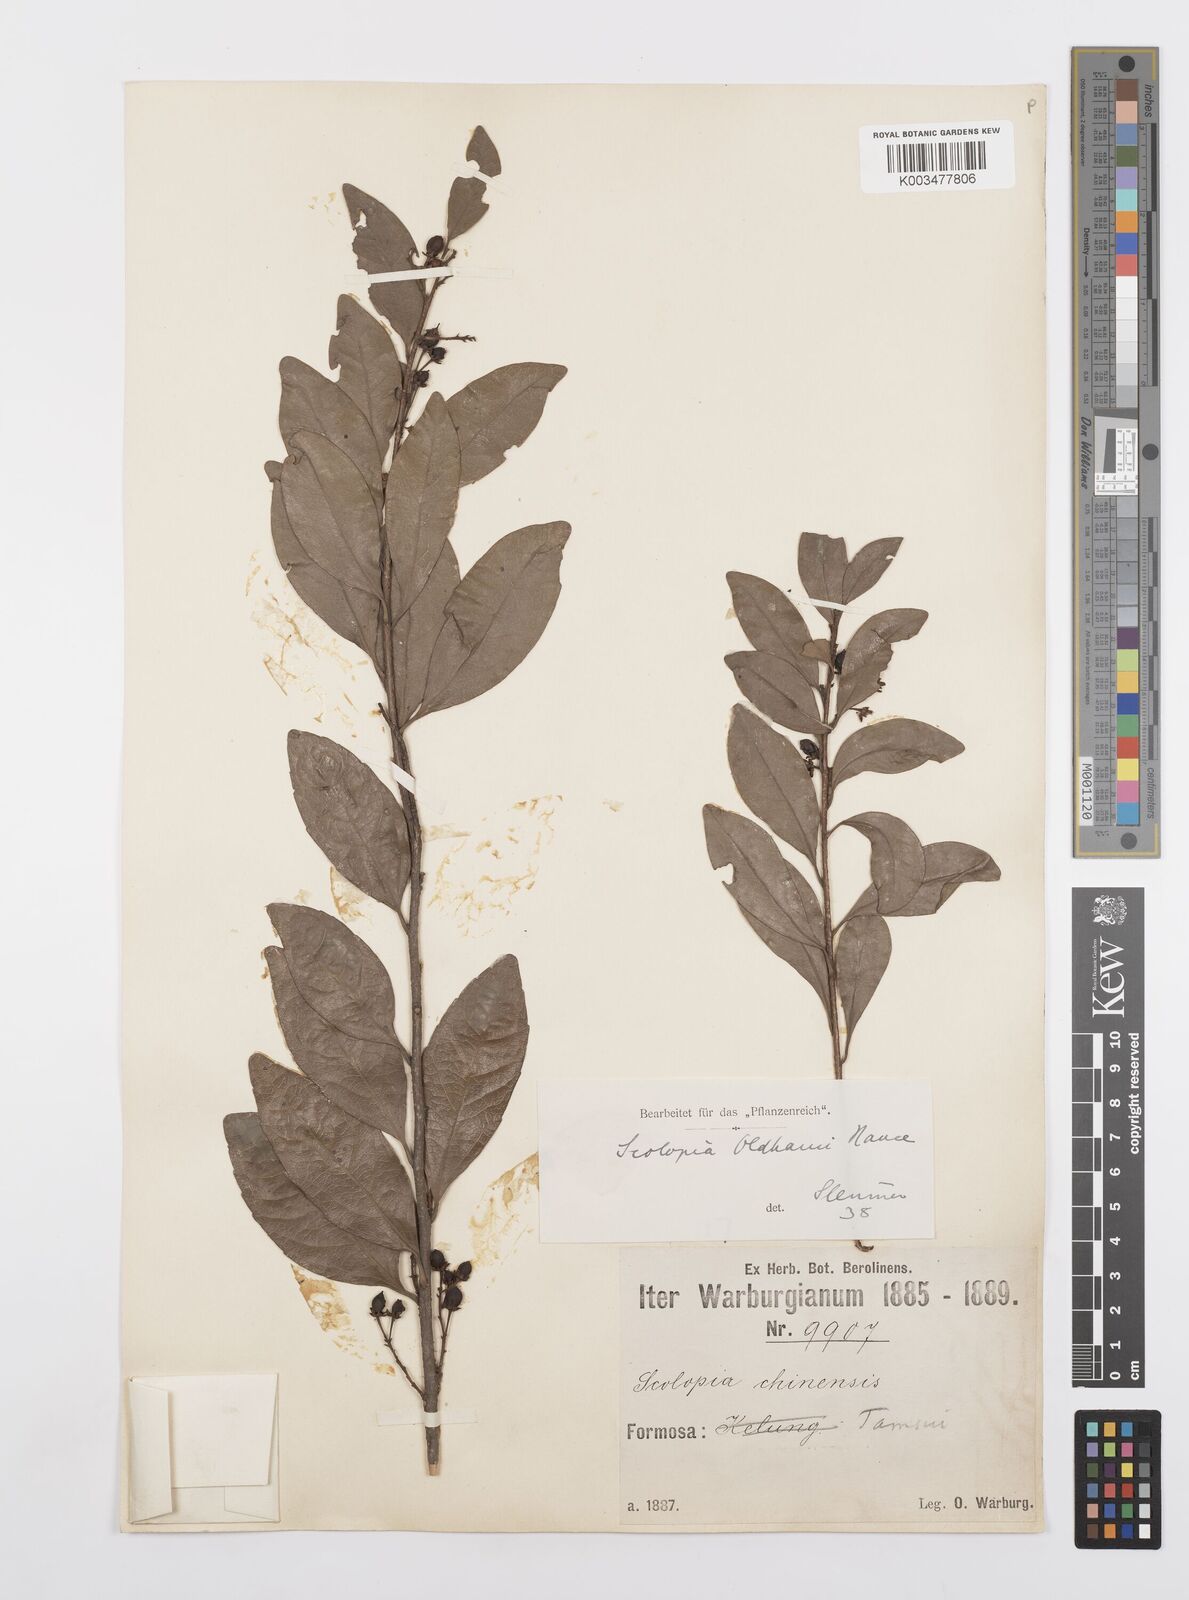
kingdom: Plantae
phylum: Tracheophyta
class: Magnoliopsida
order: Malpighiales
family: Salicaceae
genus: Scolopia
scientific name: Scolopia oldhamii
